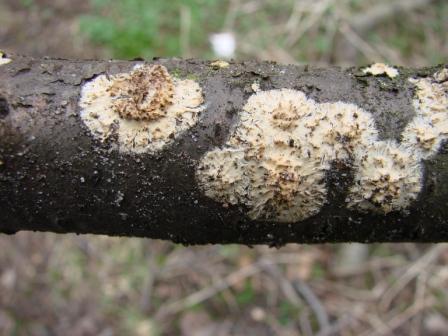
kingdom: Fungi
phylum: Basidiomycota
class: Agaricomycetes
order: Hymenochaetales
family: Schizoporaceae
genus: Xylodon
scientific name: Xylodon radula
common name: grovtandet kalkskind
